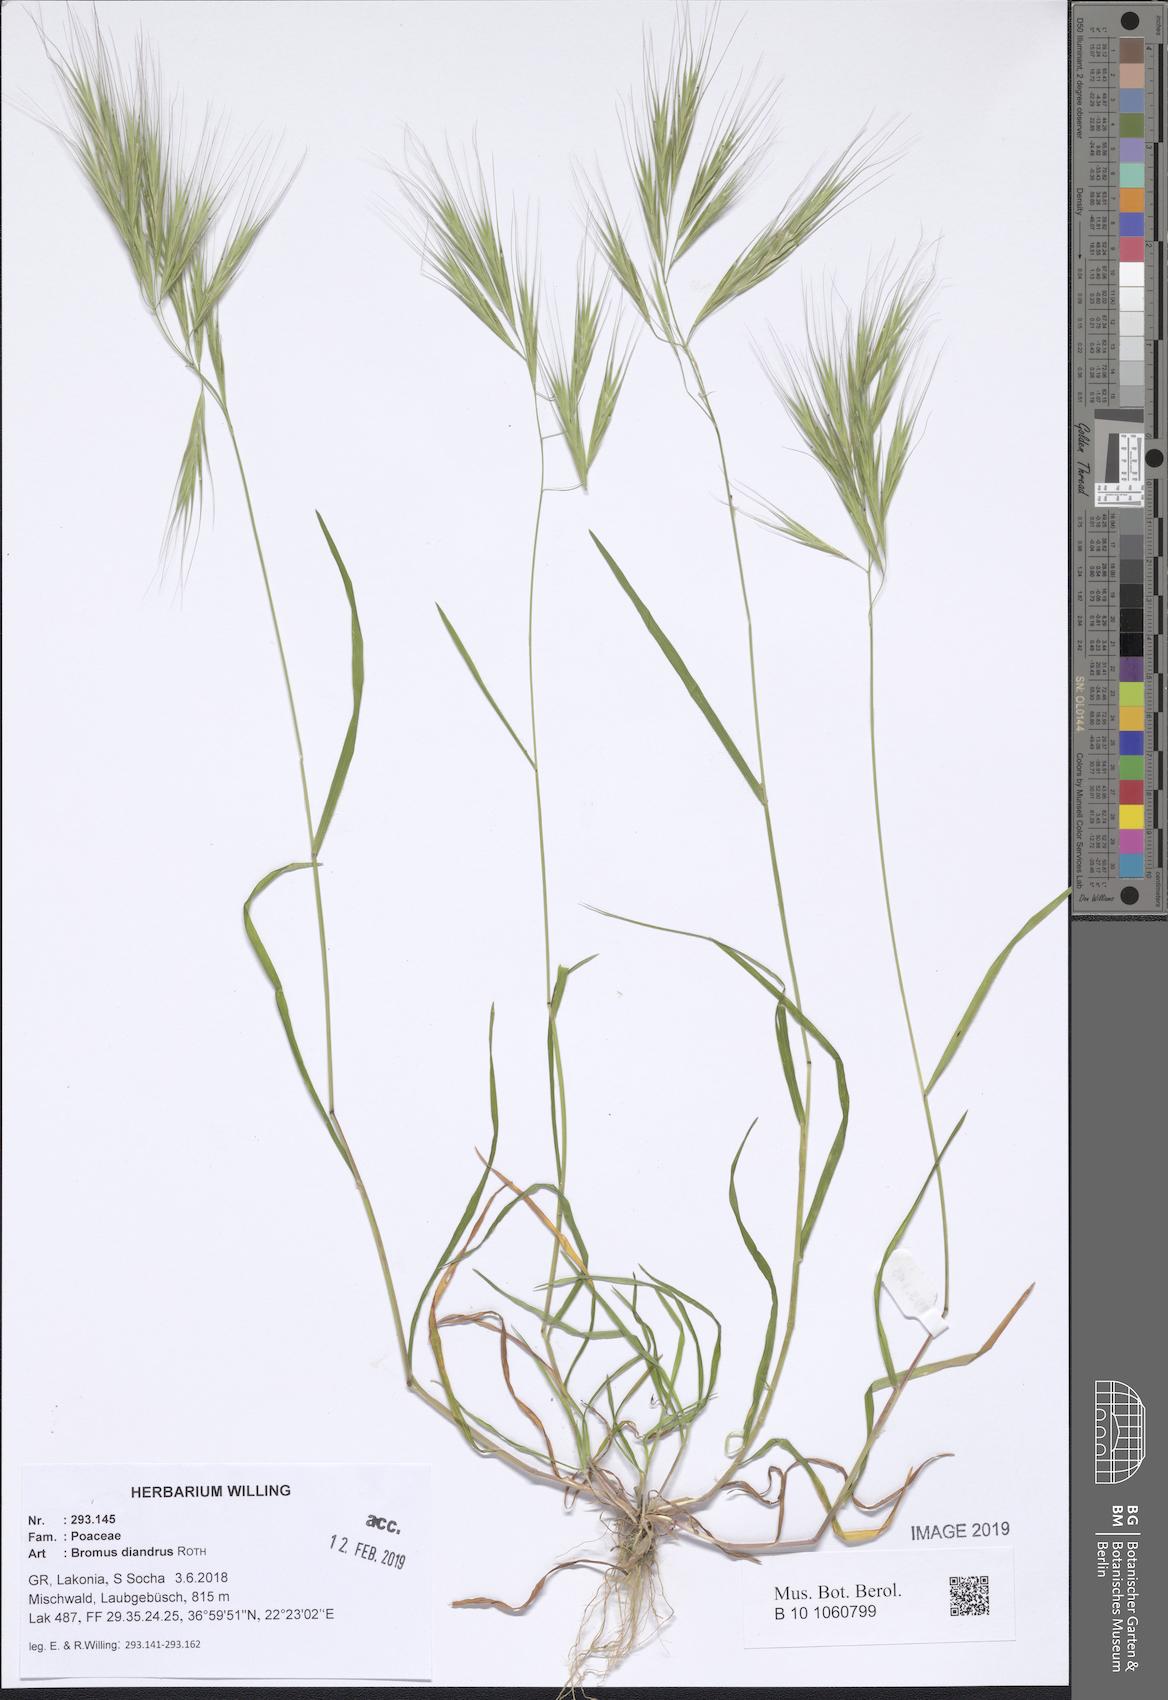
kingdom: Plantae
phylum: Tracheophyta
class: Liliopsida
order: Poales
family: Poaceae
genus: Bromus
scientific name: Bromus diandrus
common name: Ripgut brome
